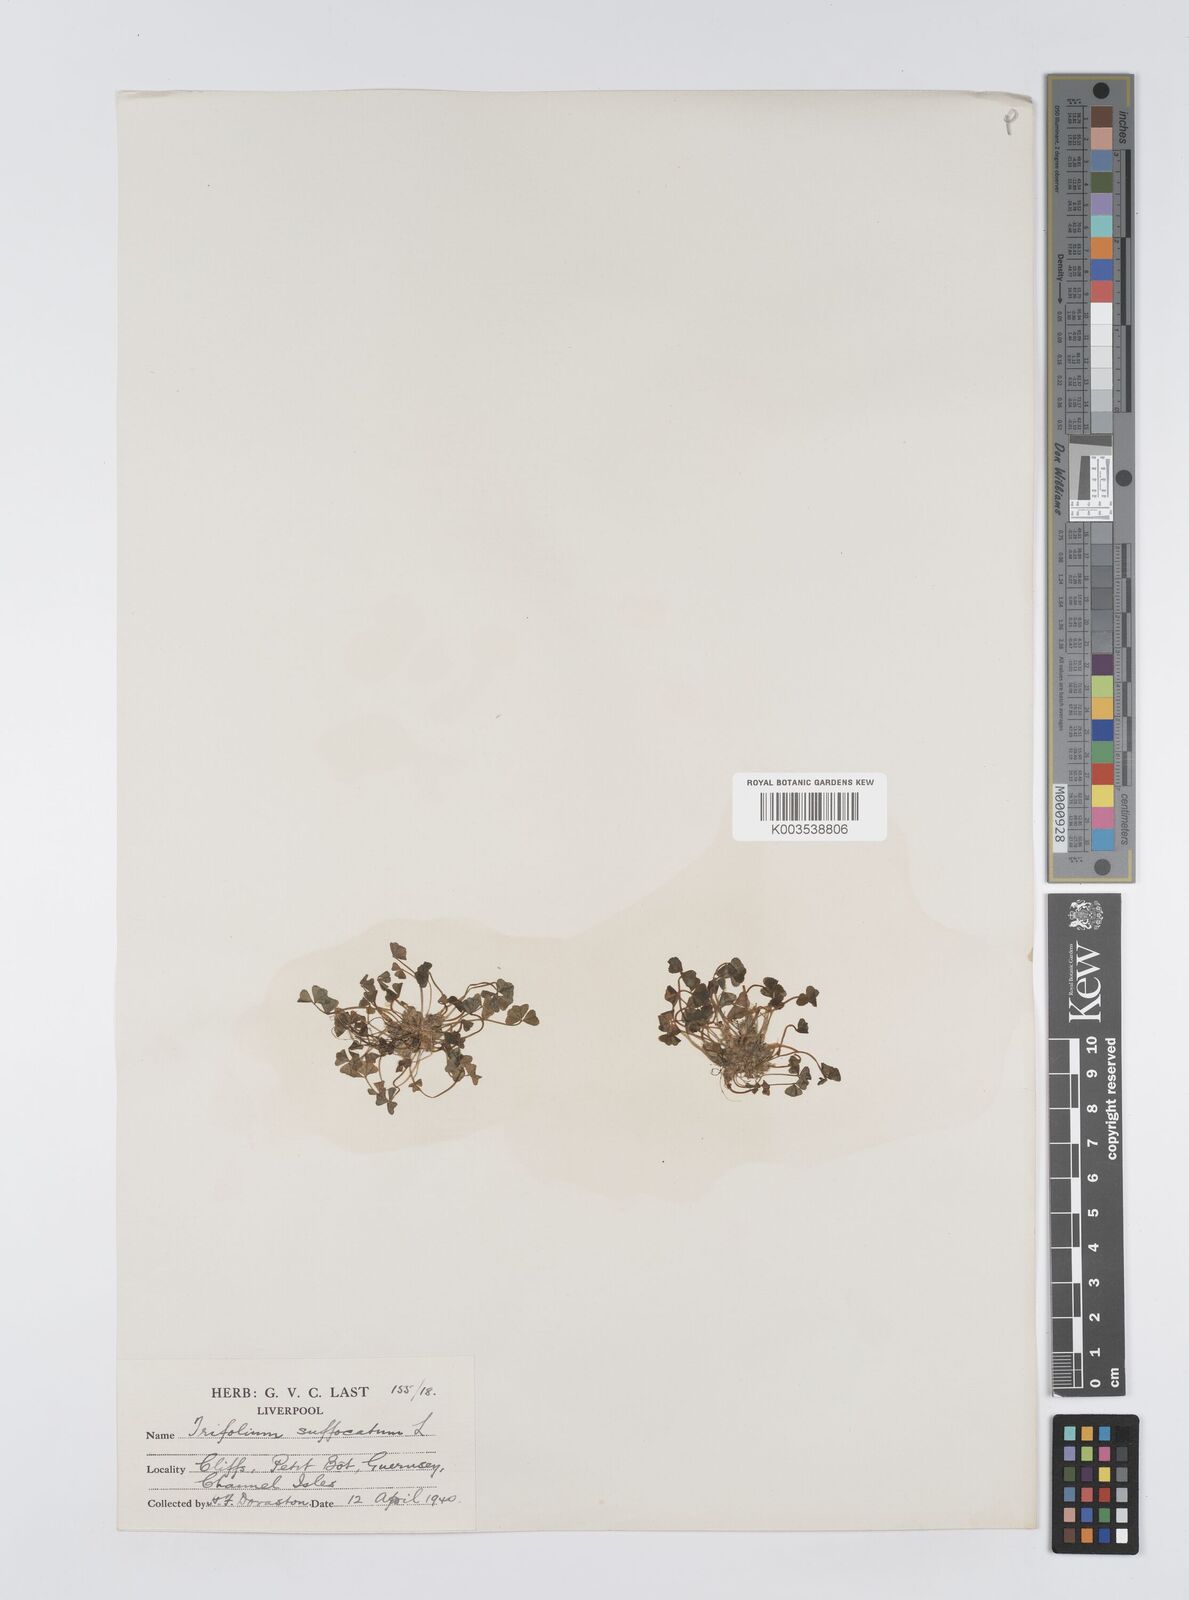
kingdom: Plantae
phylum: Tracheophyta
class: Magnoliopsida
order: Fabales
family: Fabaceae
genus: Trifolium
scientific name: Trifolium suffocatum
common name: Suffocated clover
